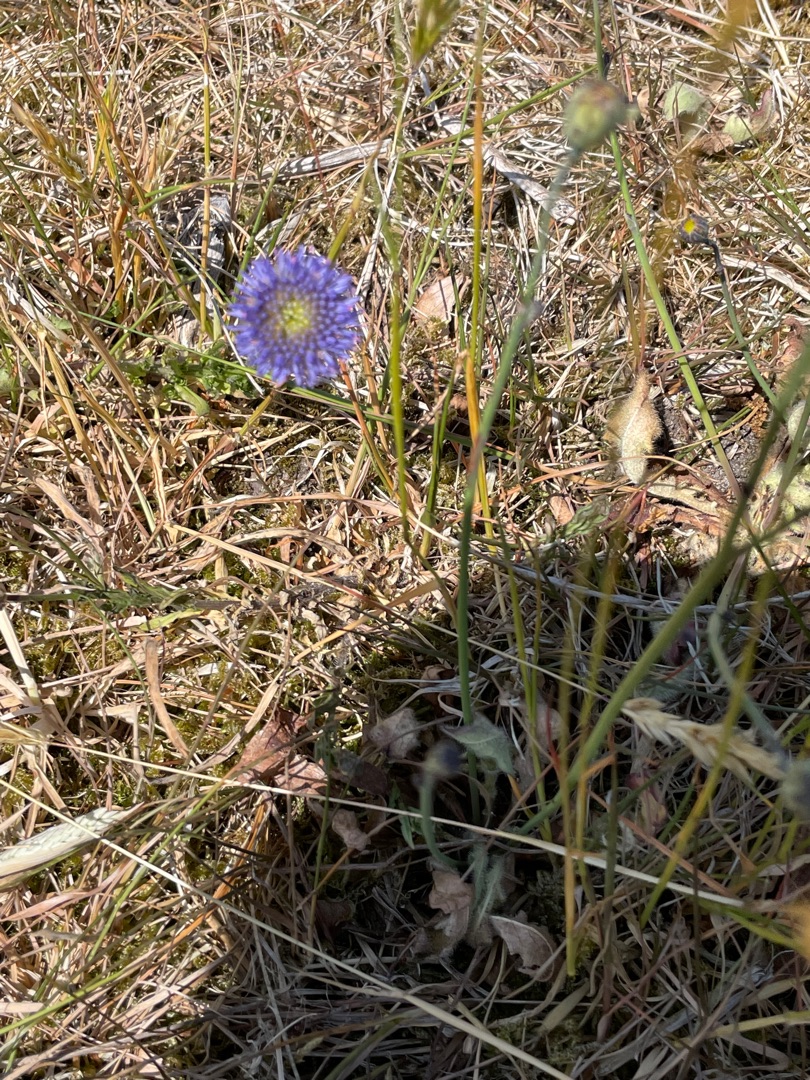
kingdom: Plantae
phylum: Tracheophyta
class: Magnoliopsida
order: Asterales
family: Campanulaceae
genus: Jasione
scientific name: Jasione montana
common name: Blåmunke
